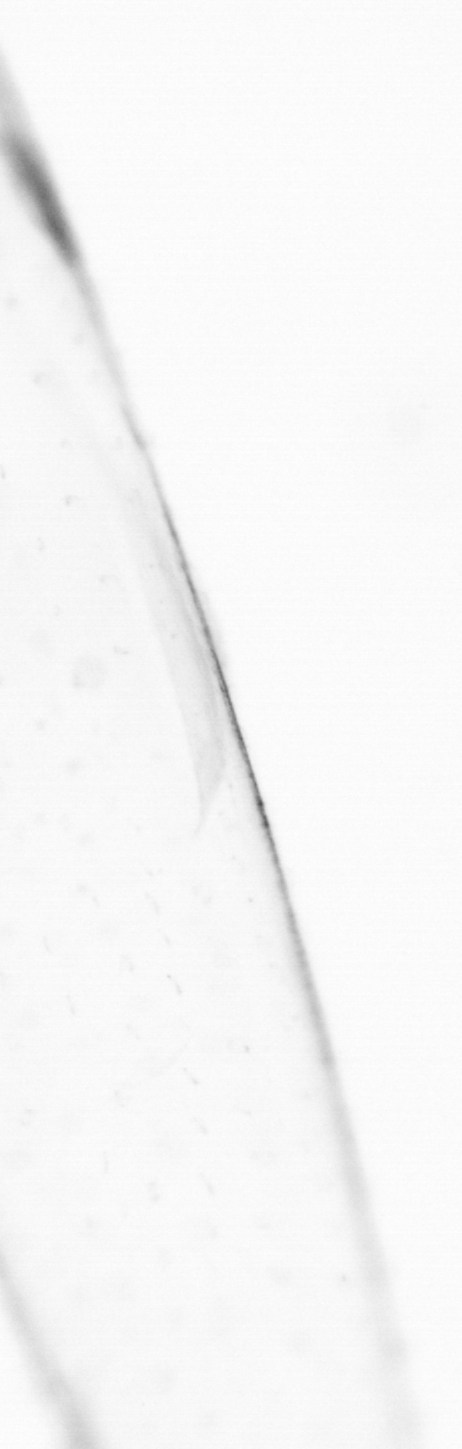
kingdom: Animalia
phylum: Chaetognatha
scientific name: Chaetognatha
